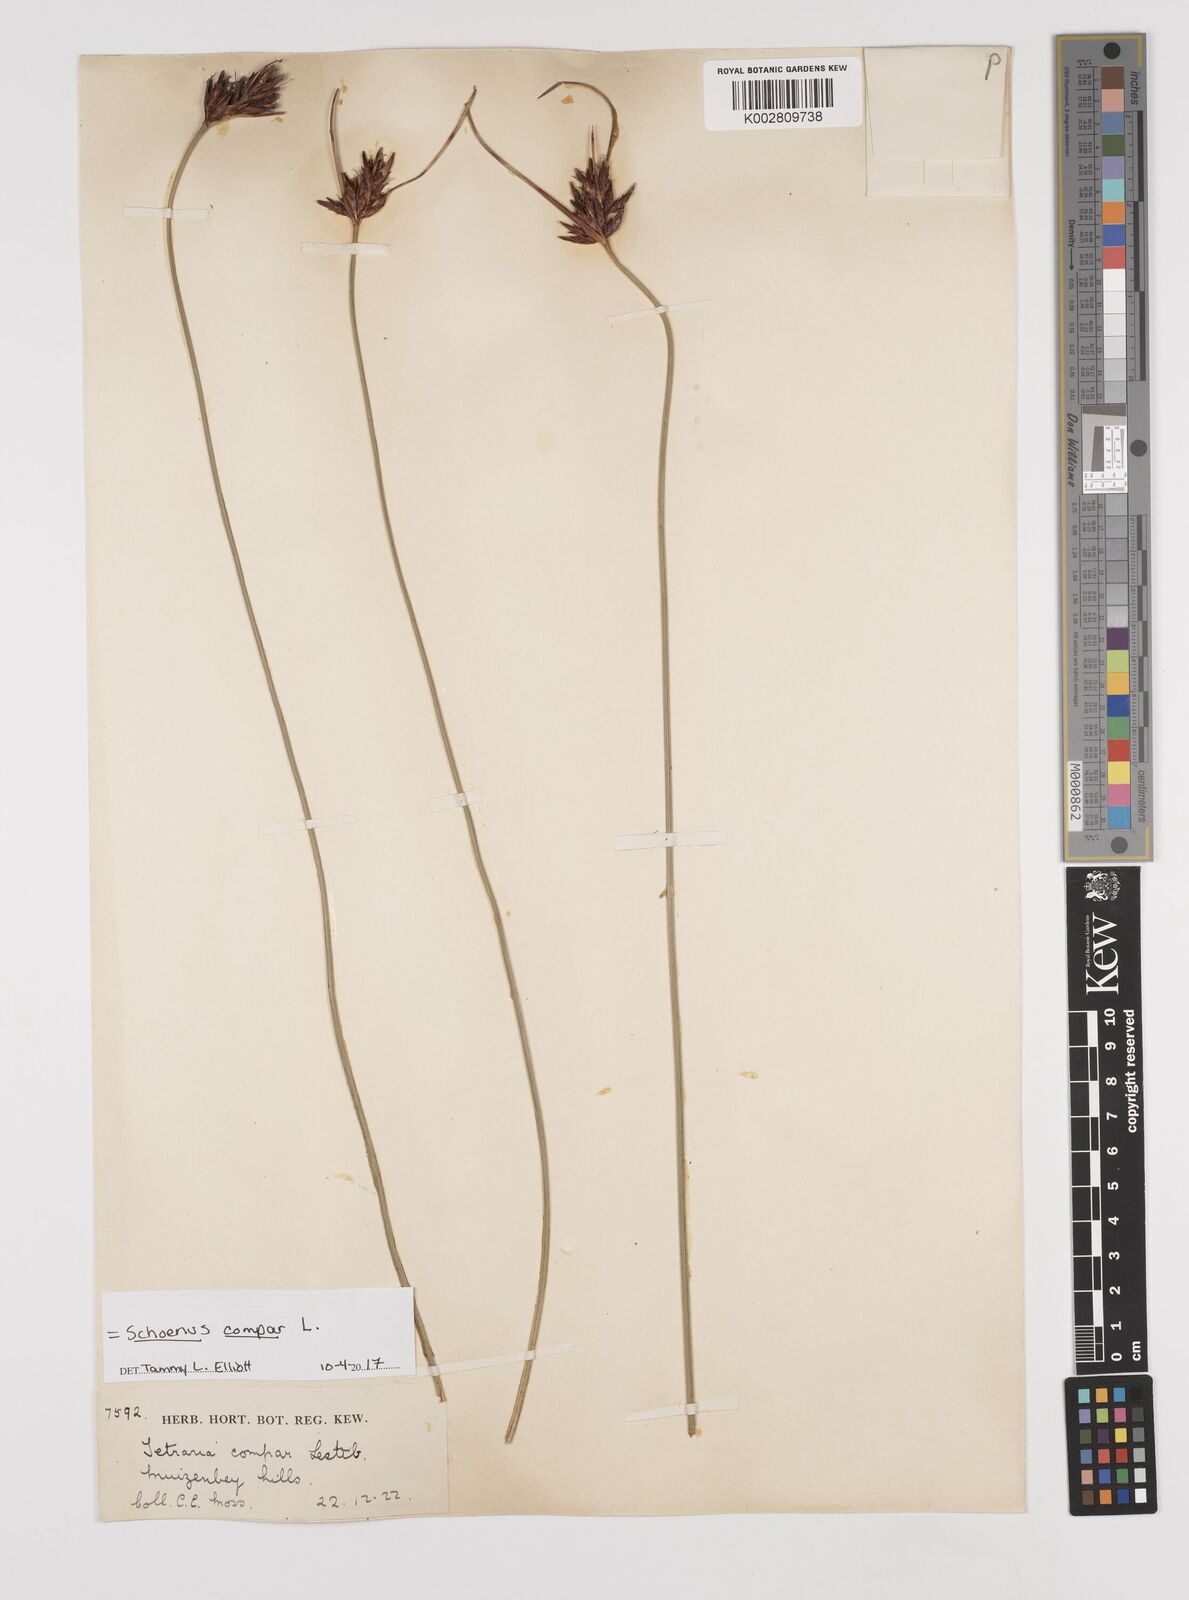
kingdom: Plantae
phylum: Tracheophyta
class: Liliopsida
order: Poales
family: Cyperaceae
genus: Schoenus
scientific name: Schoenus compar
